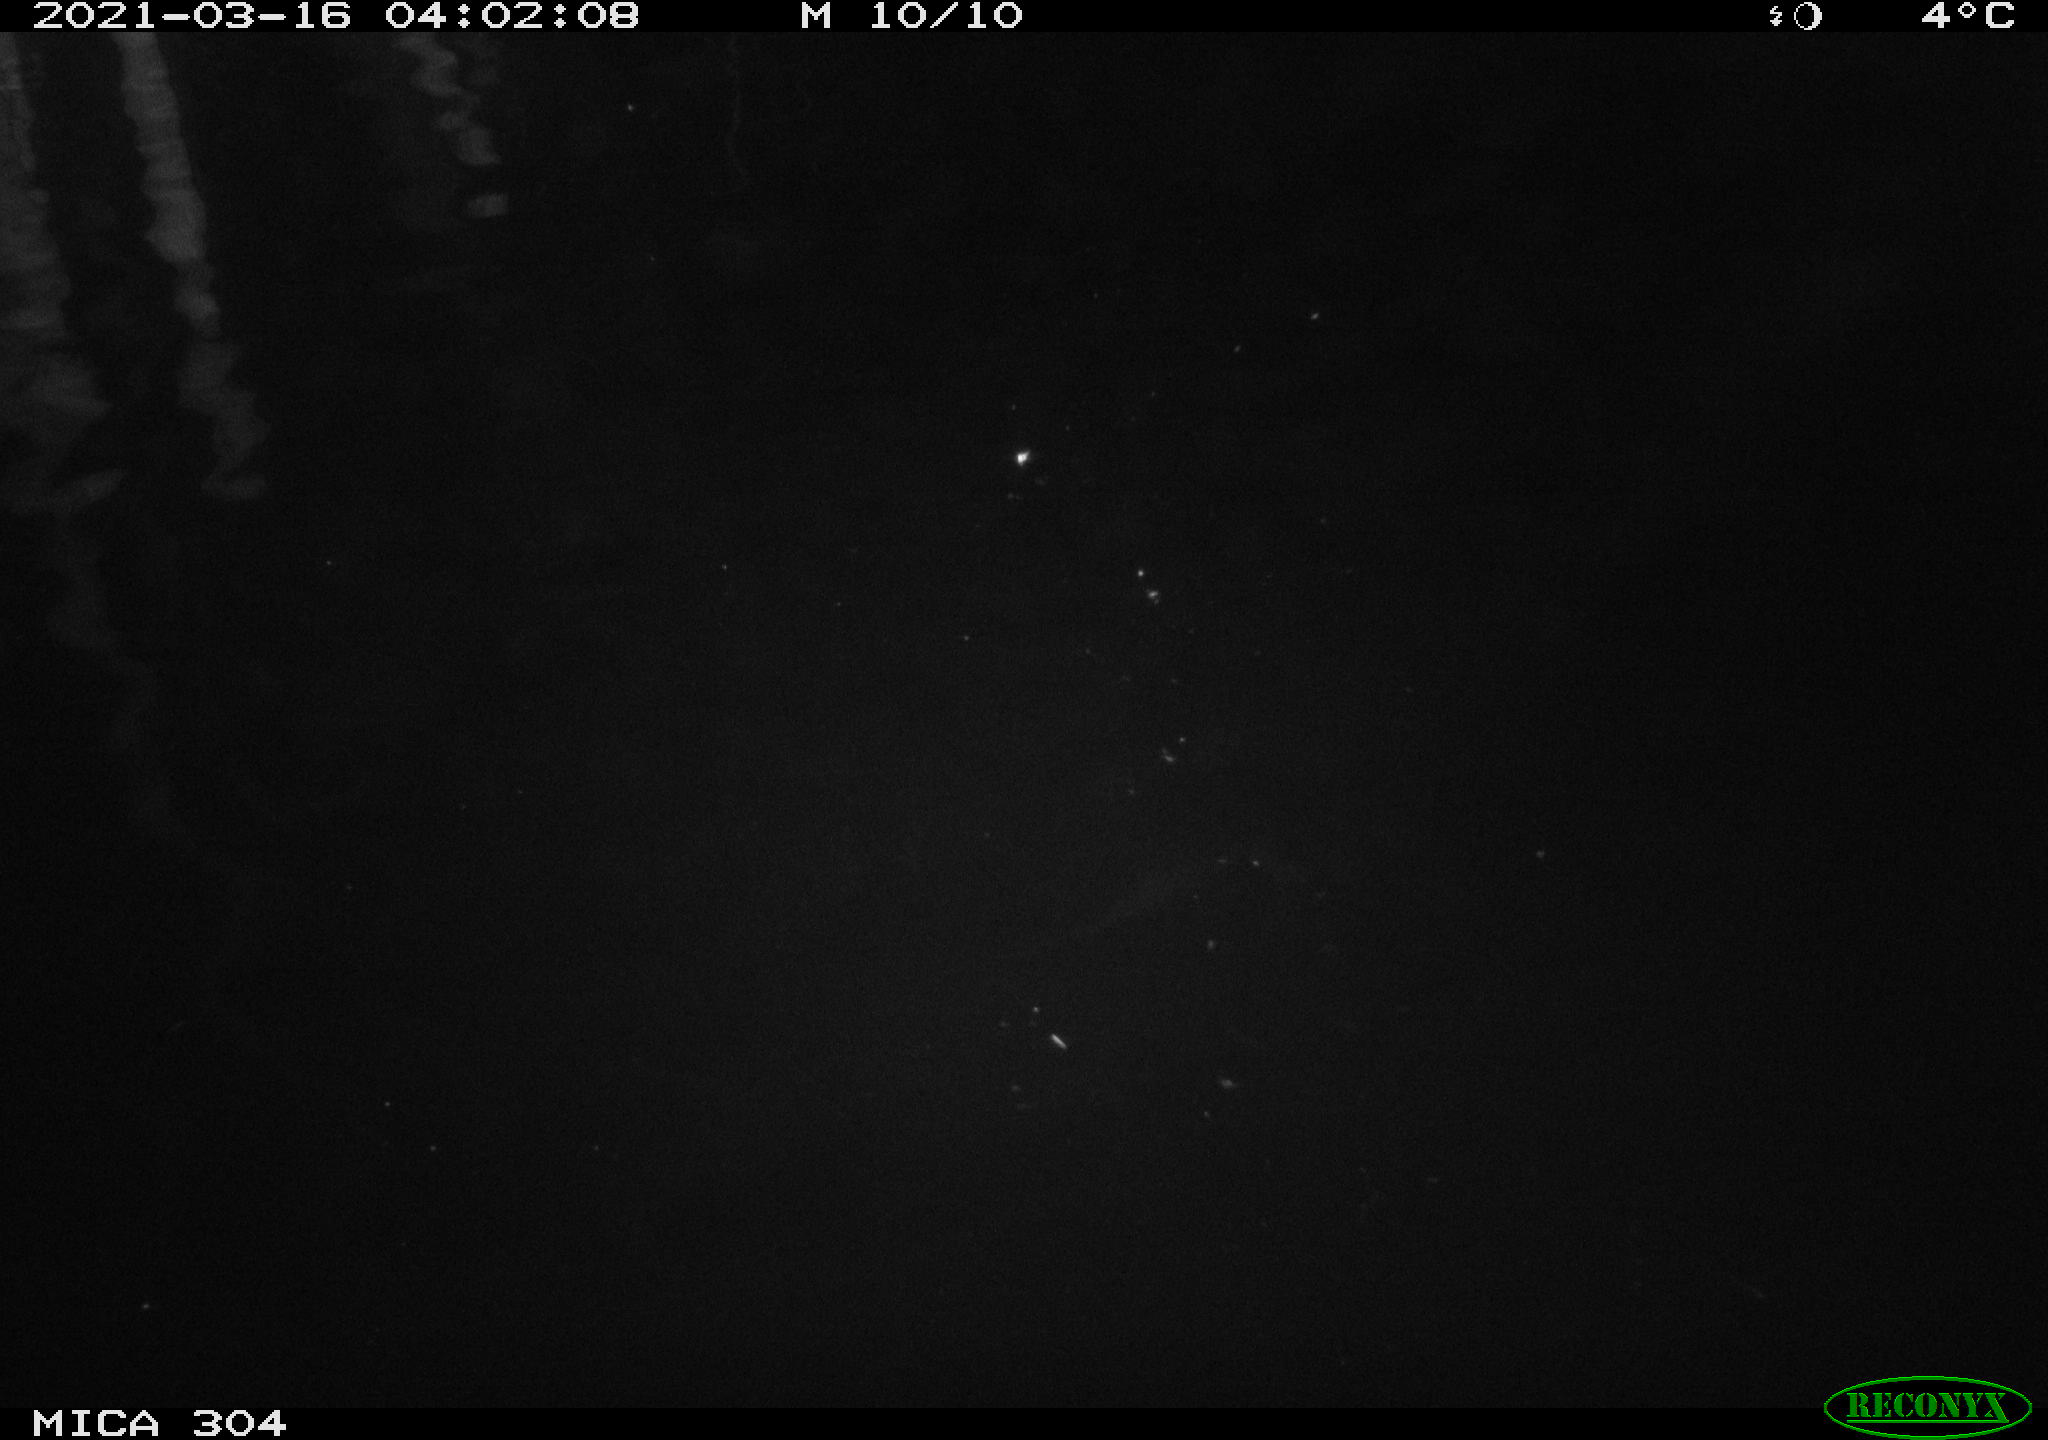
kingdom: Animalia
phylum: Chordata
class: Mammalia
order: Rodentia
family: Cricetidae
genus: Ondatra
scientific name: Ondatra zibethicus
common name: Muskrat
